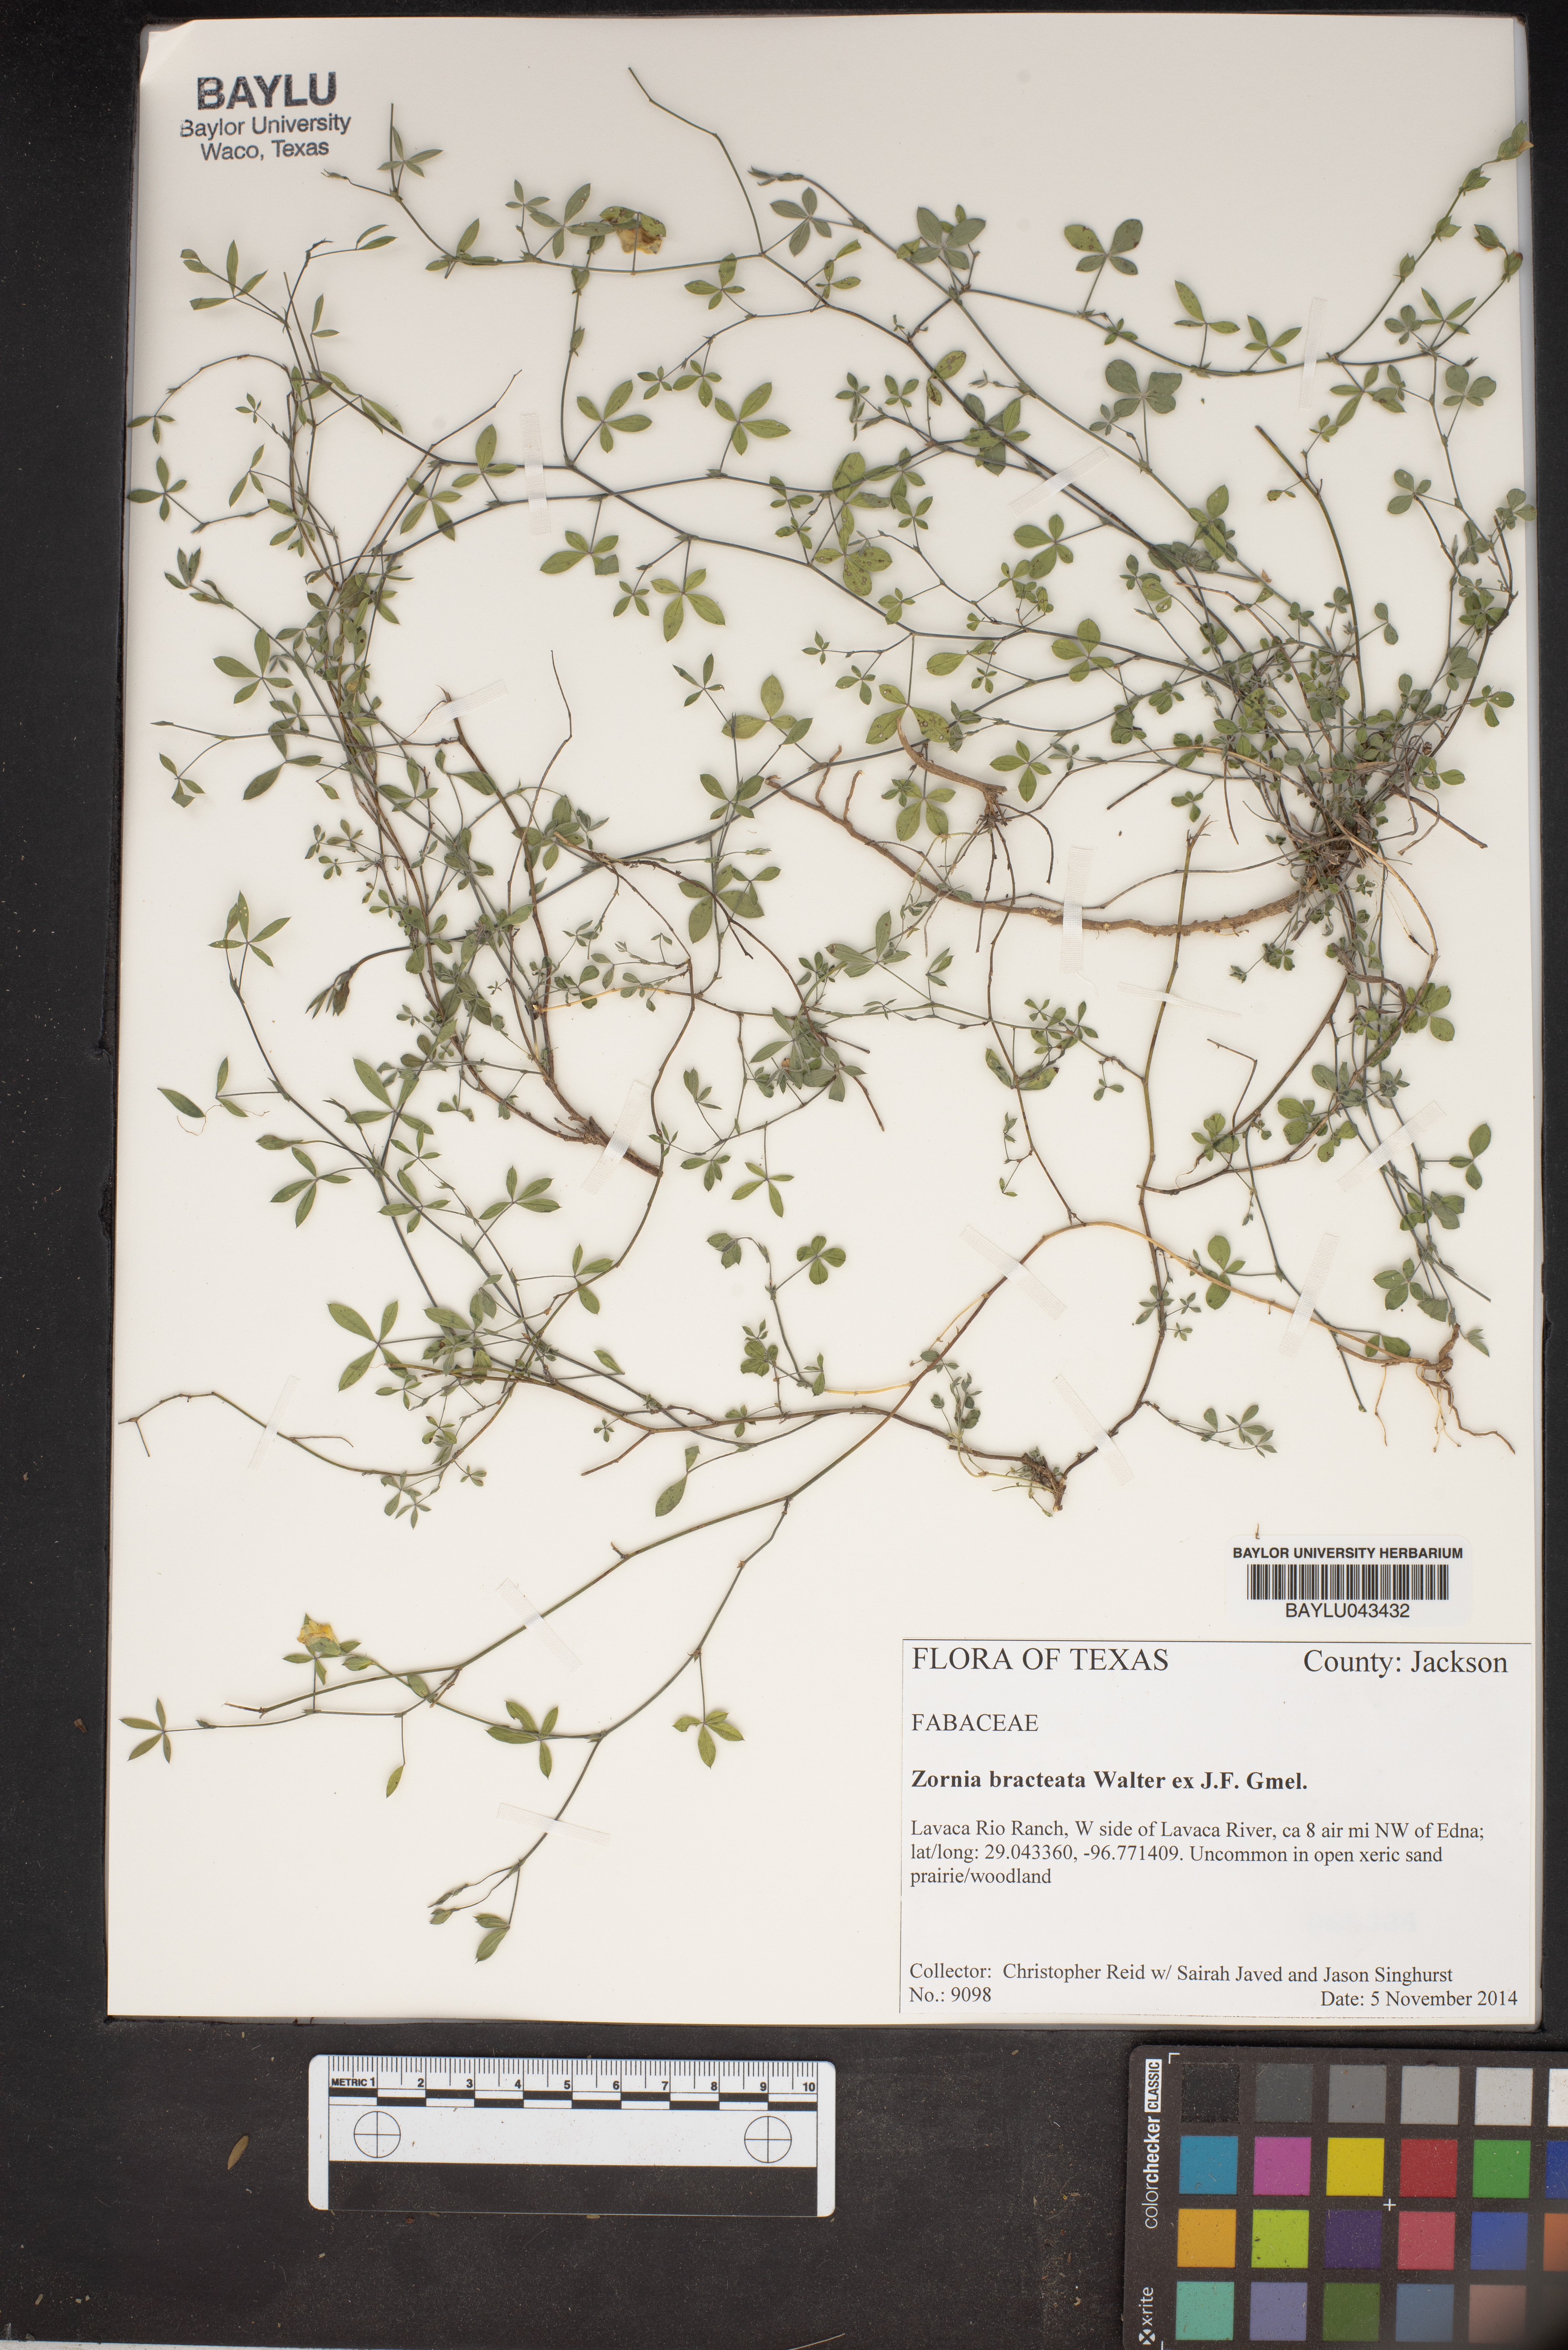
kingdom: Plantae
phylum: Tracheophyta
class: Magnoliopsida
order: Fabales
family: Fabaceae
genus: Zornia
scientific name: Zornia bracteata
